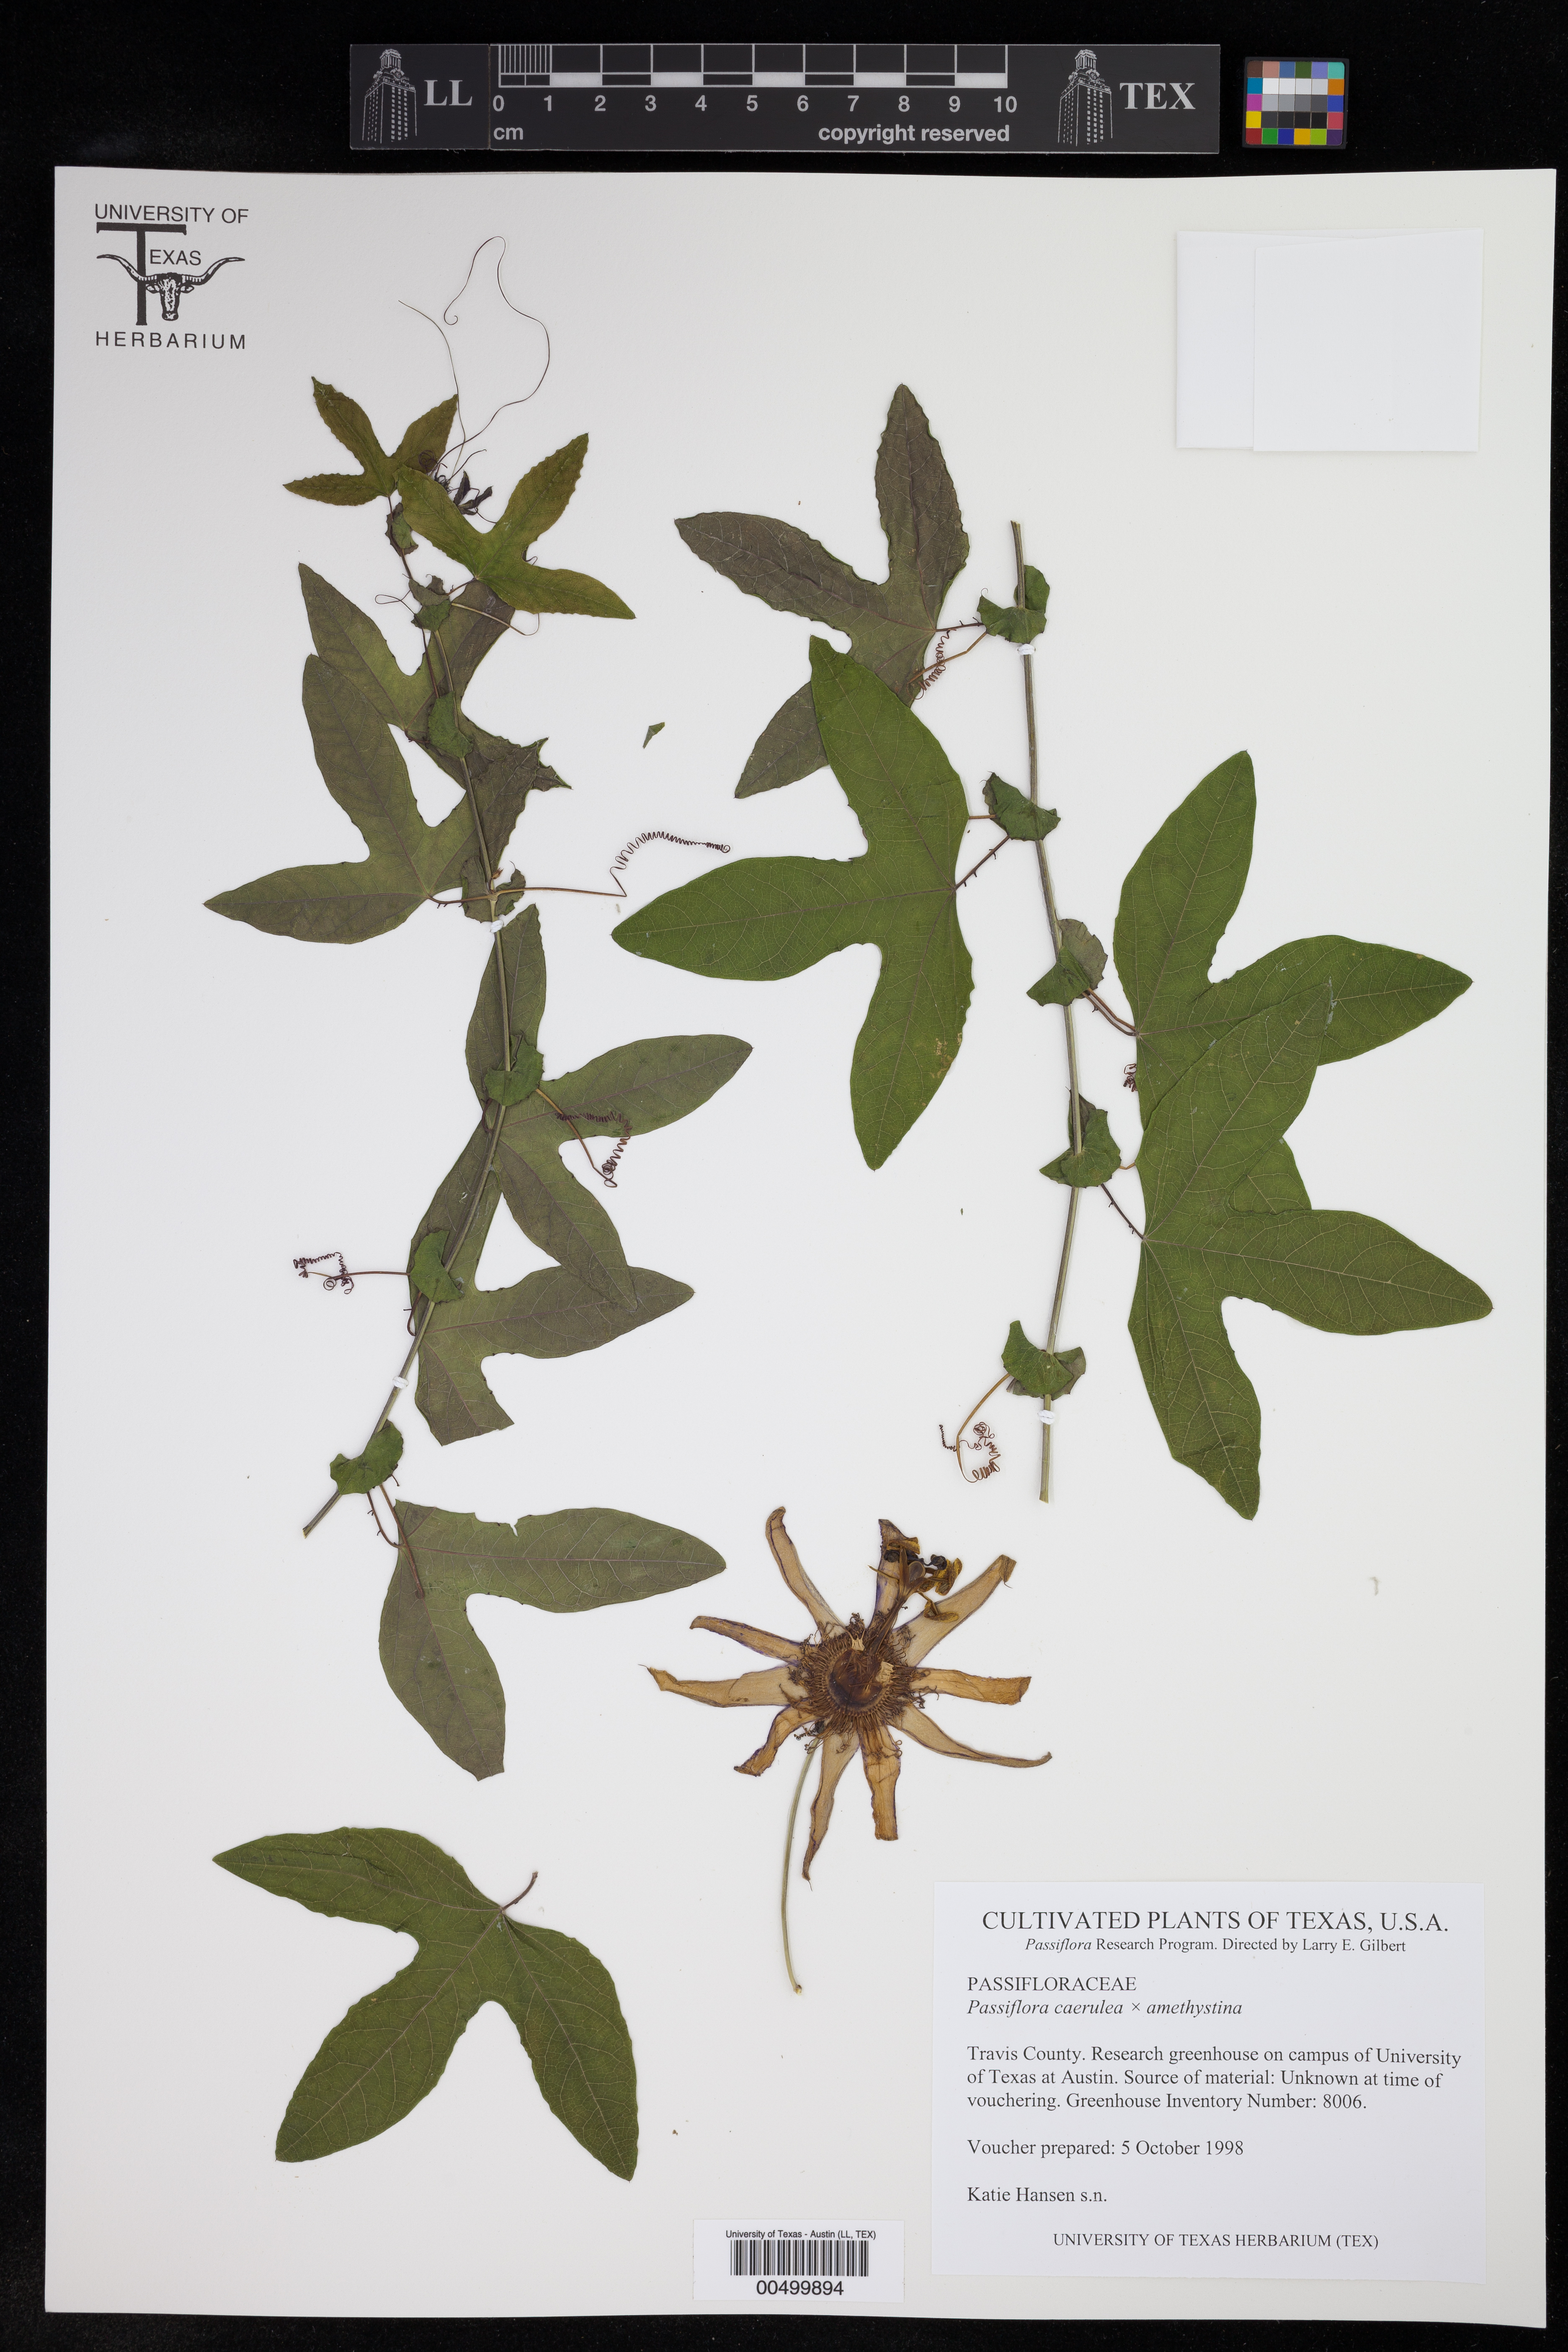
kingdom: Plantae
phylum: Tracheophyta
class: Magnoliopsida
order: Malpighiales
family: Passifloraceae
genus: Passiflora
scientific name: Passiflora
